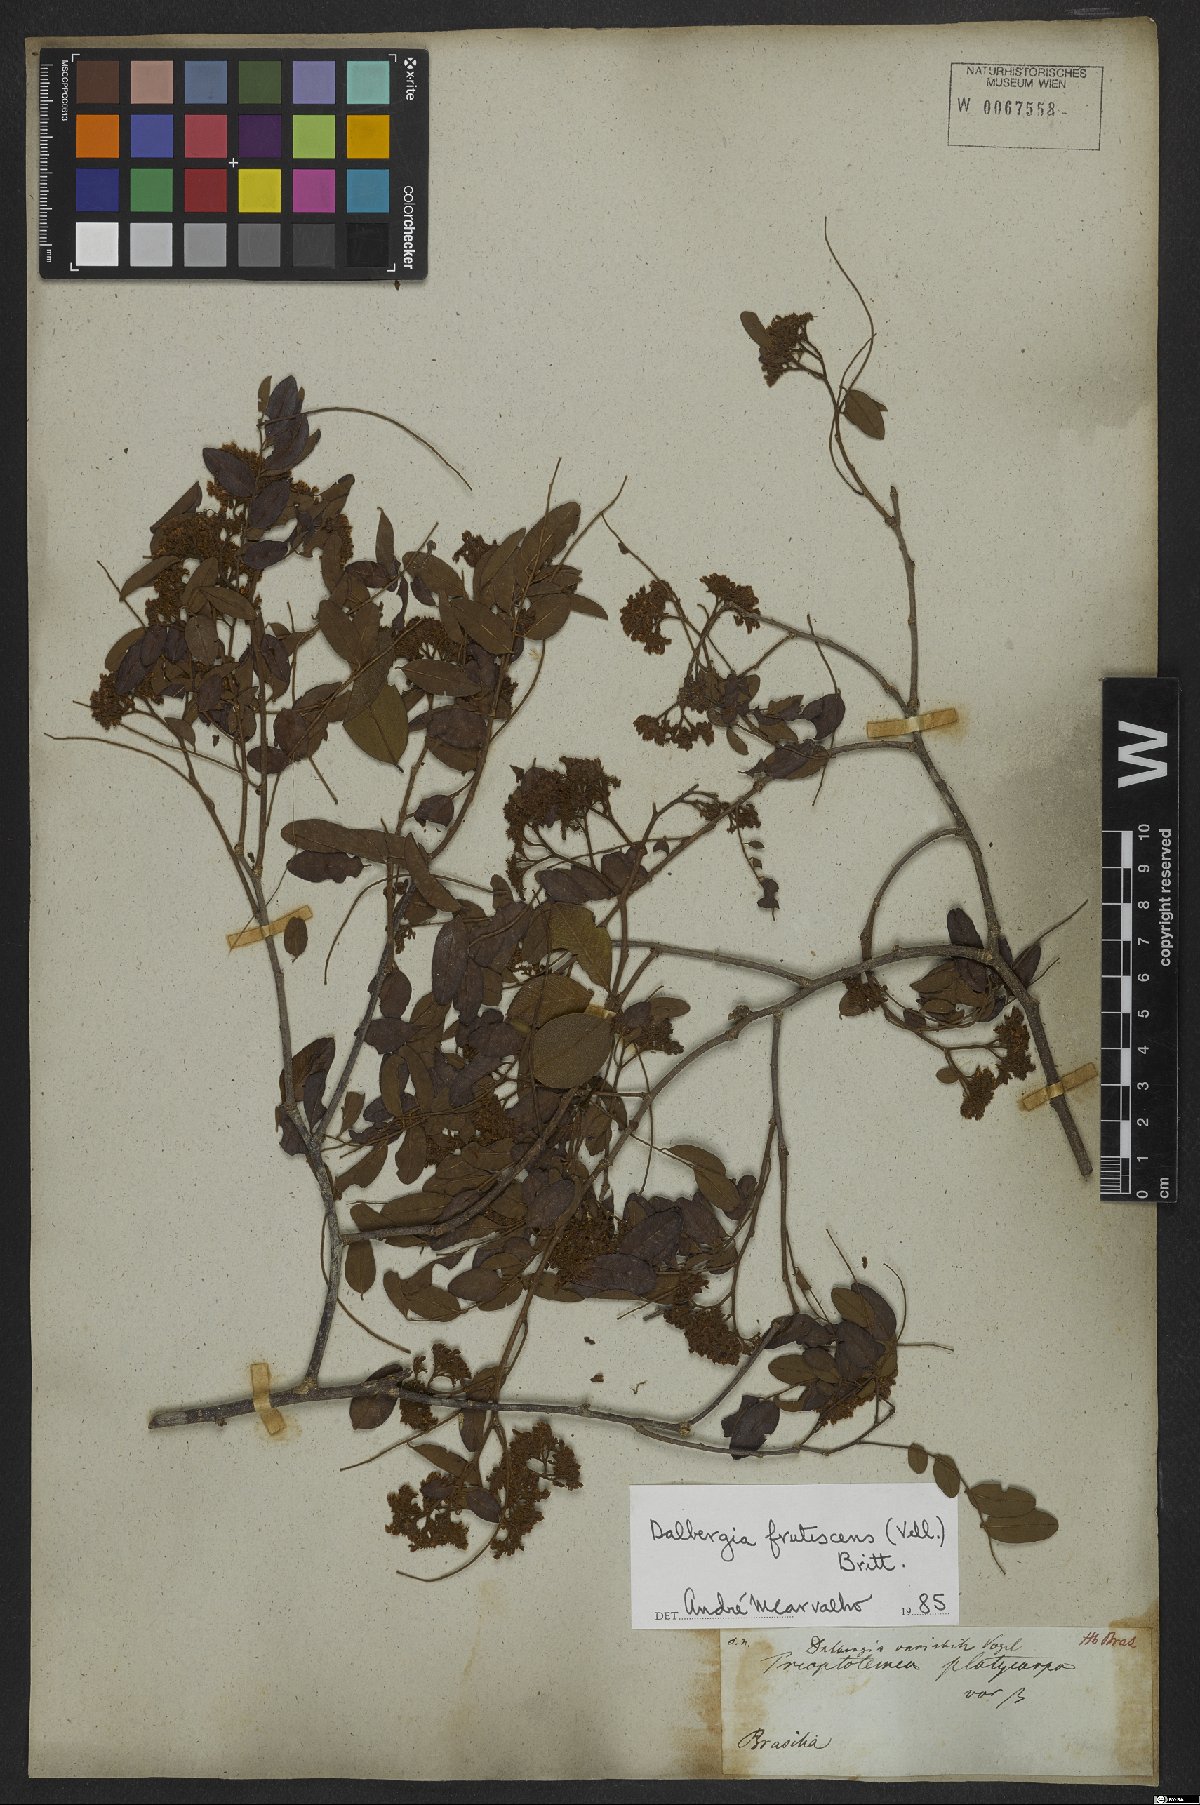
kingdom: Plantae
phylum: Tracheophyta
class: Magnoliopsida
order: Fabales
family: Fabaceae
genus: Dalbergia
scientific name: Dalbergia frutescens
